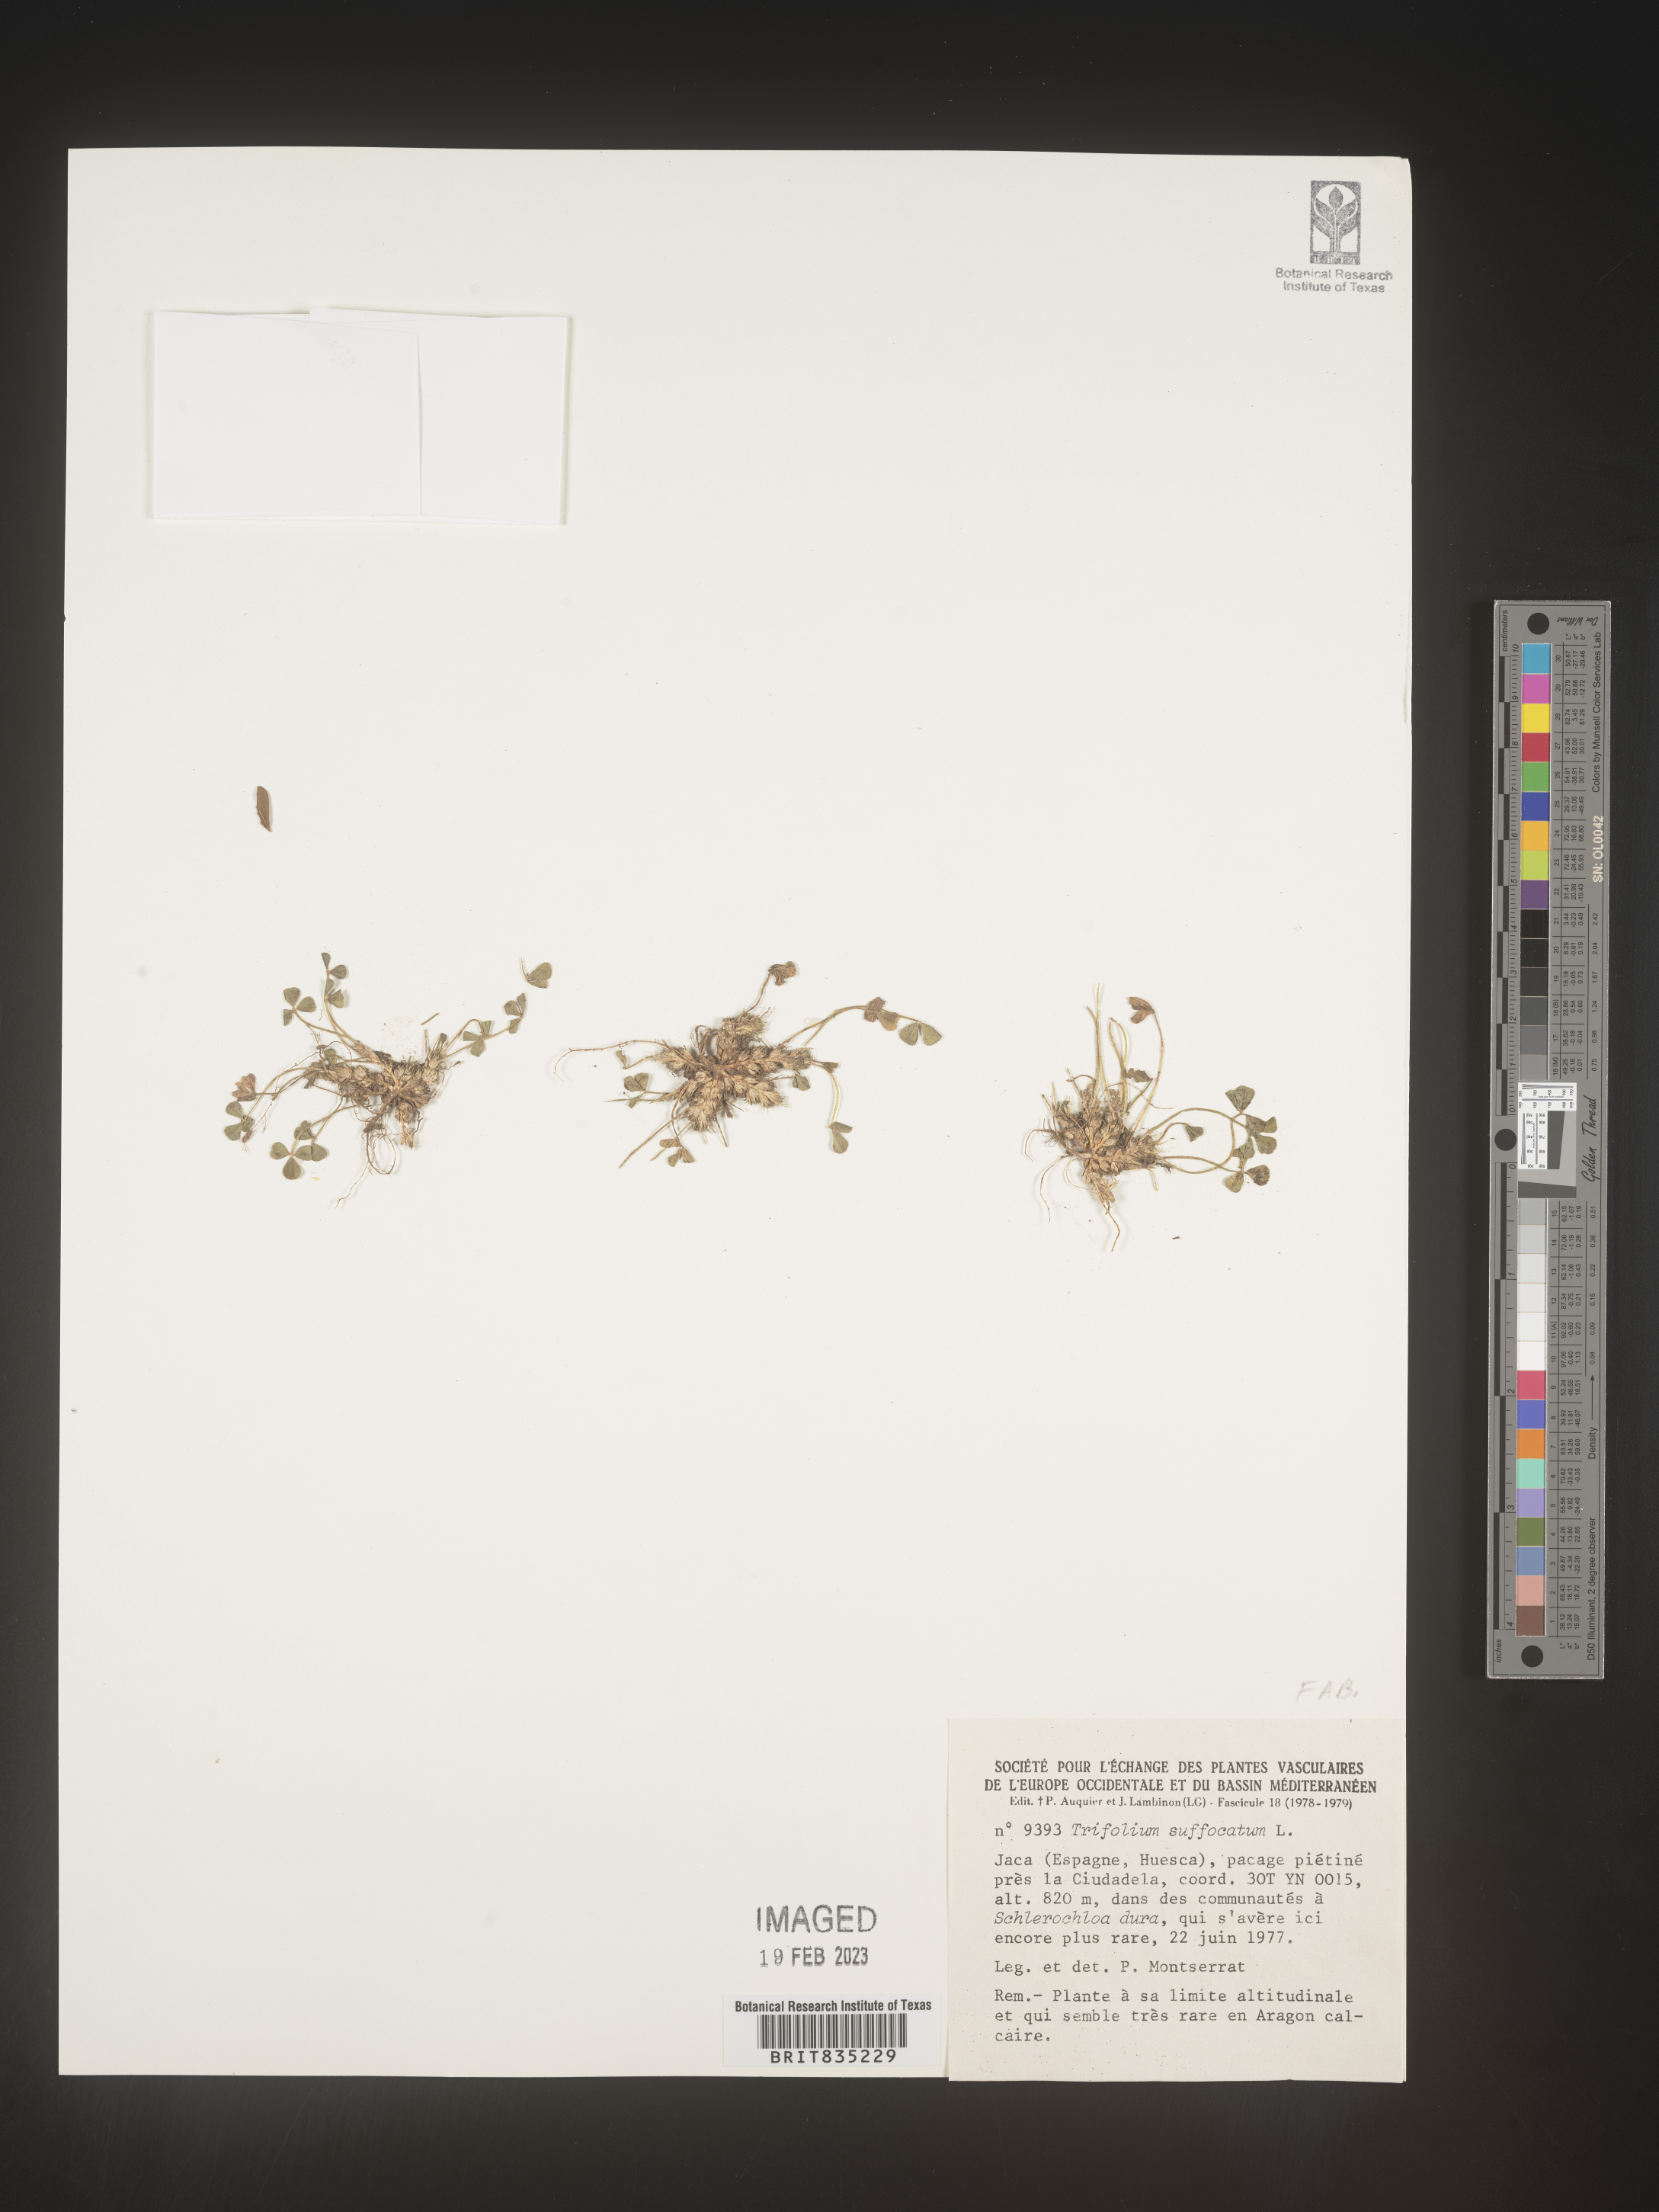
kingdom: Plantae
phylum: Tracheophyta
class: Magnoliopsida
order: Fabales
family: Fabaceae
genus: Trifolium
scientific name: Trifolium
